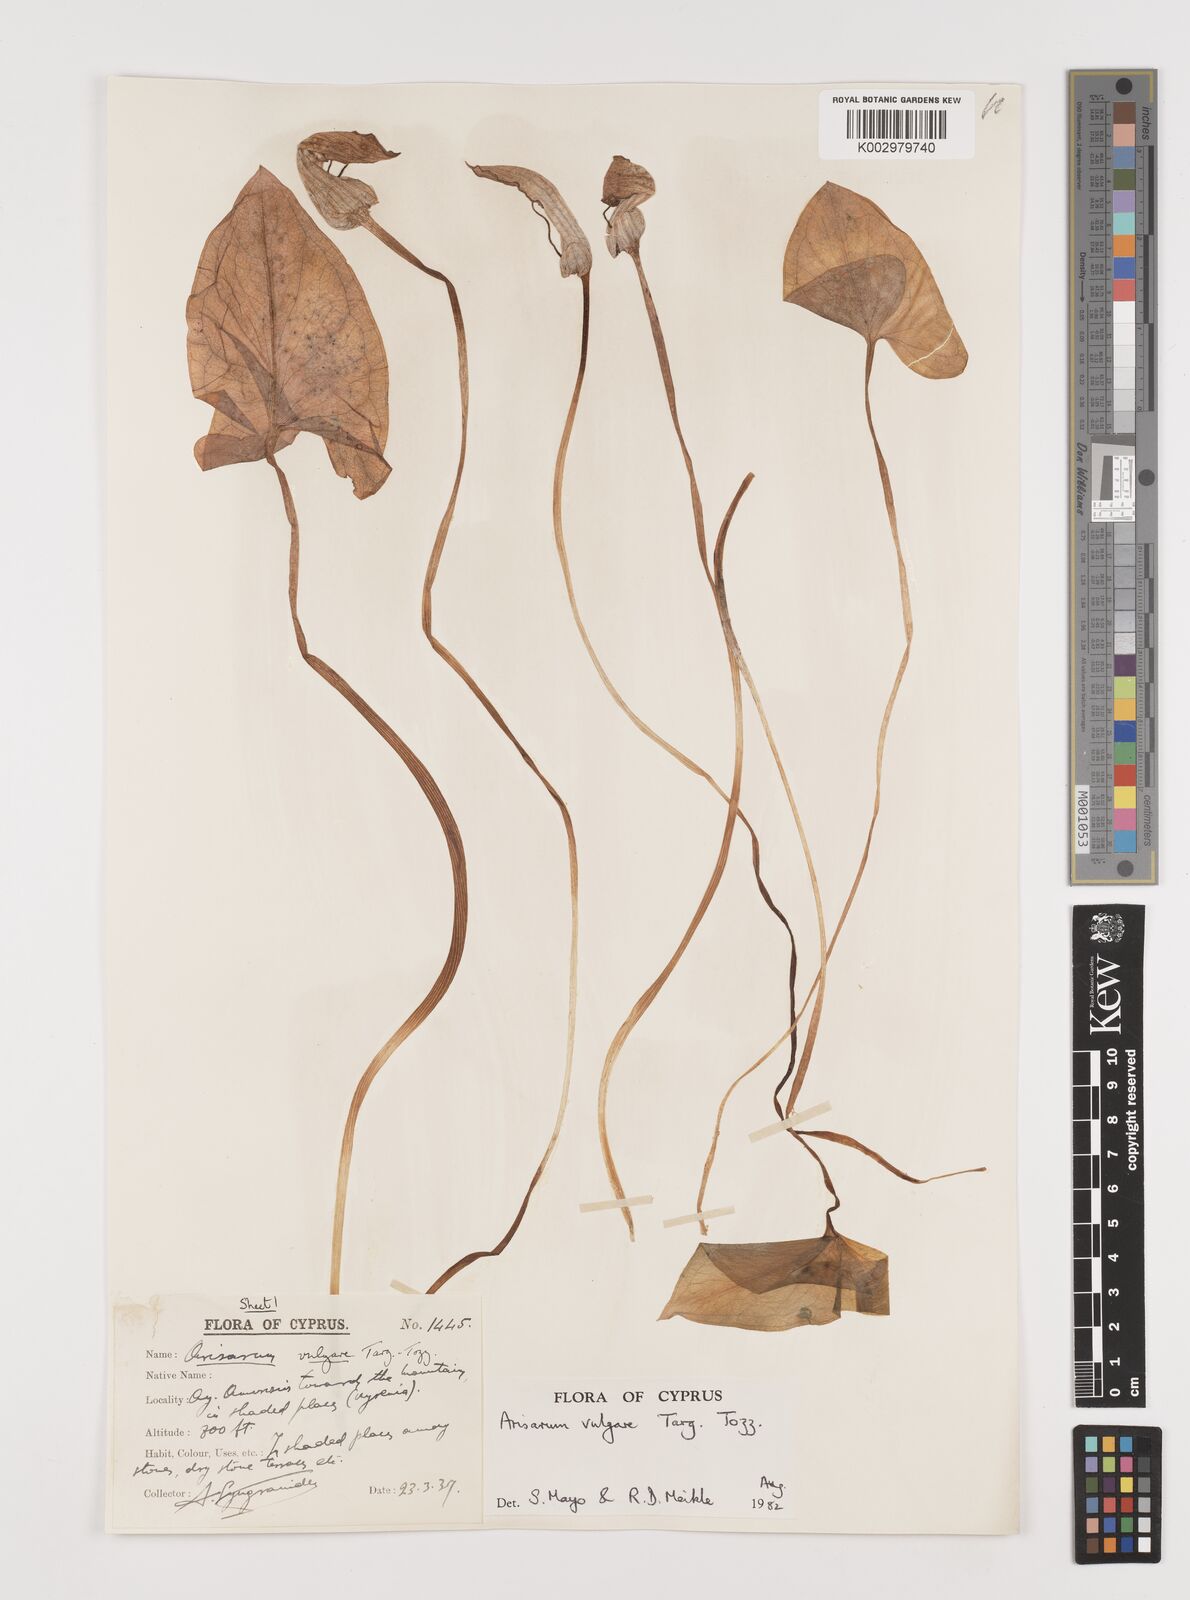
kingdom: Plantae
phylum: Tracheophyta
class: Liliopsida
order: Alismatales
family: Araceae
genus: Arisarum
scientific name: Arisarum vulgare
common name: Common arisarum
